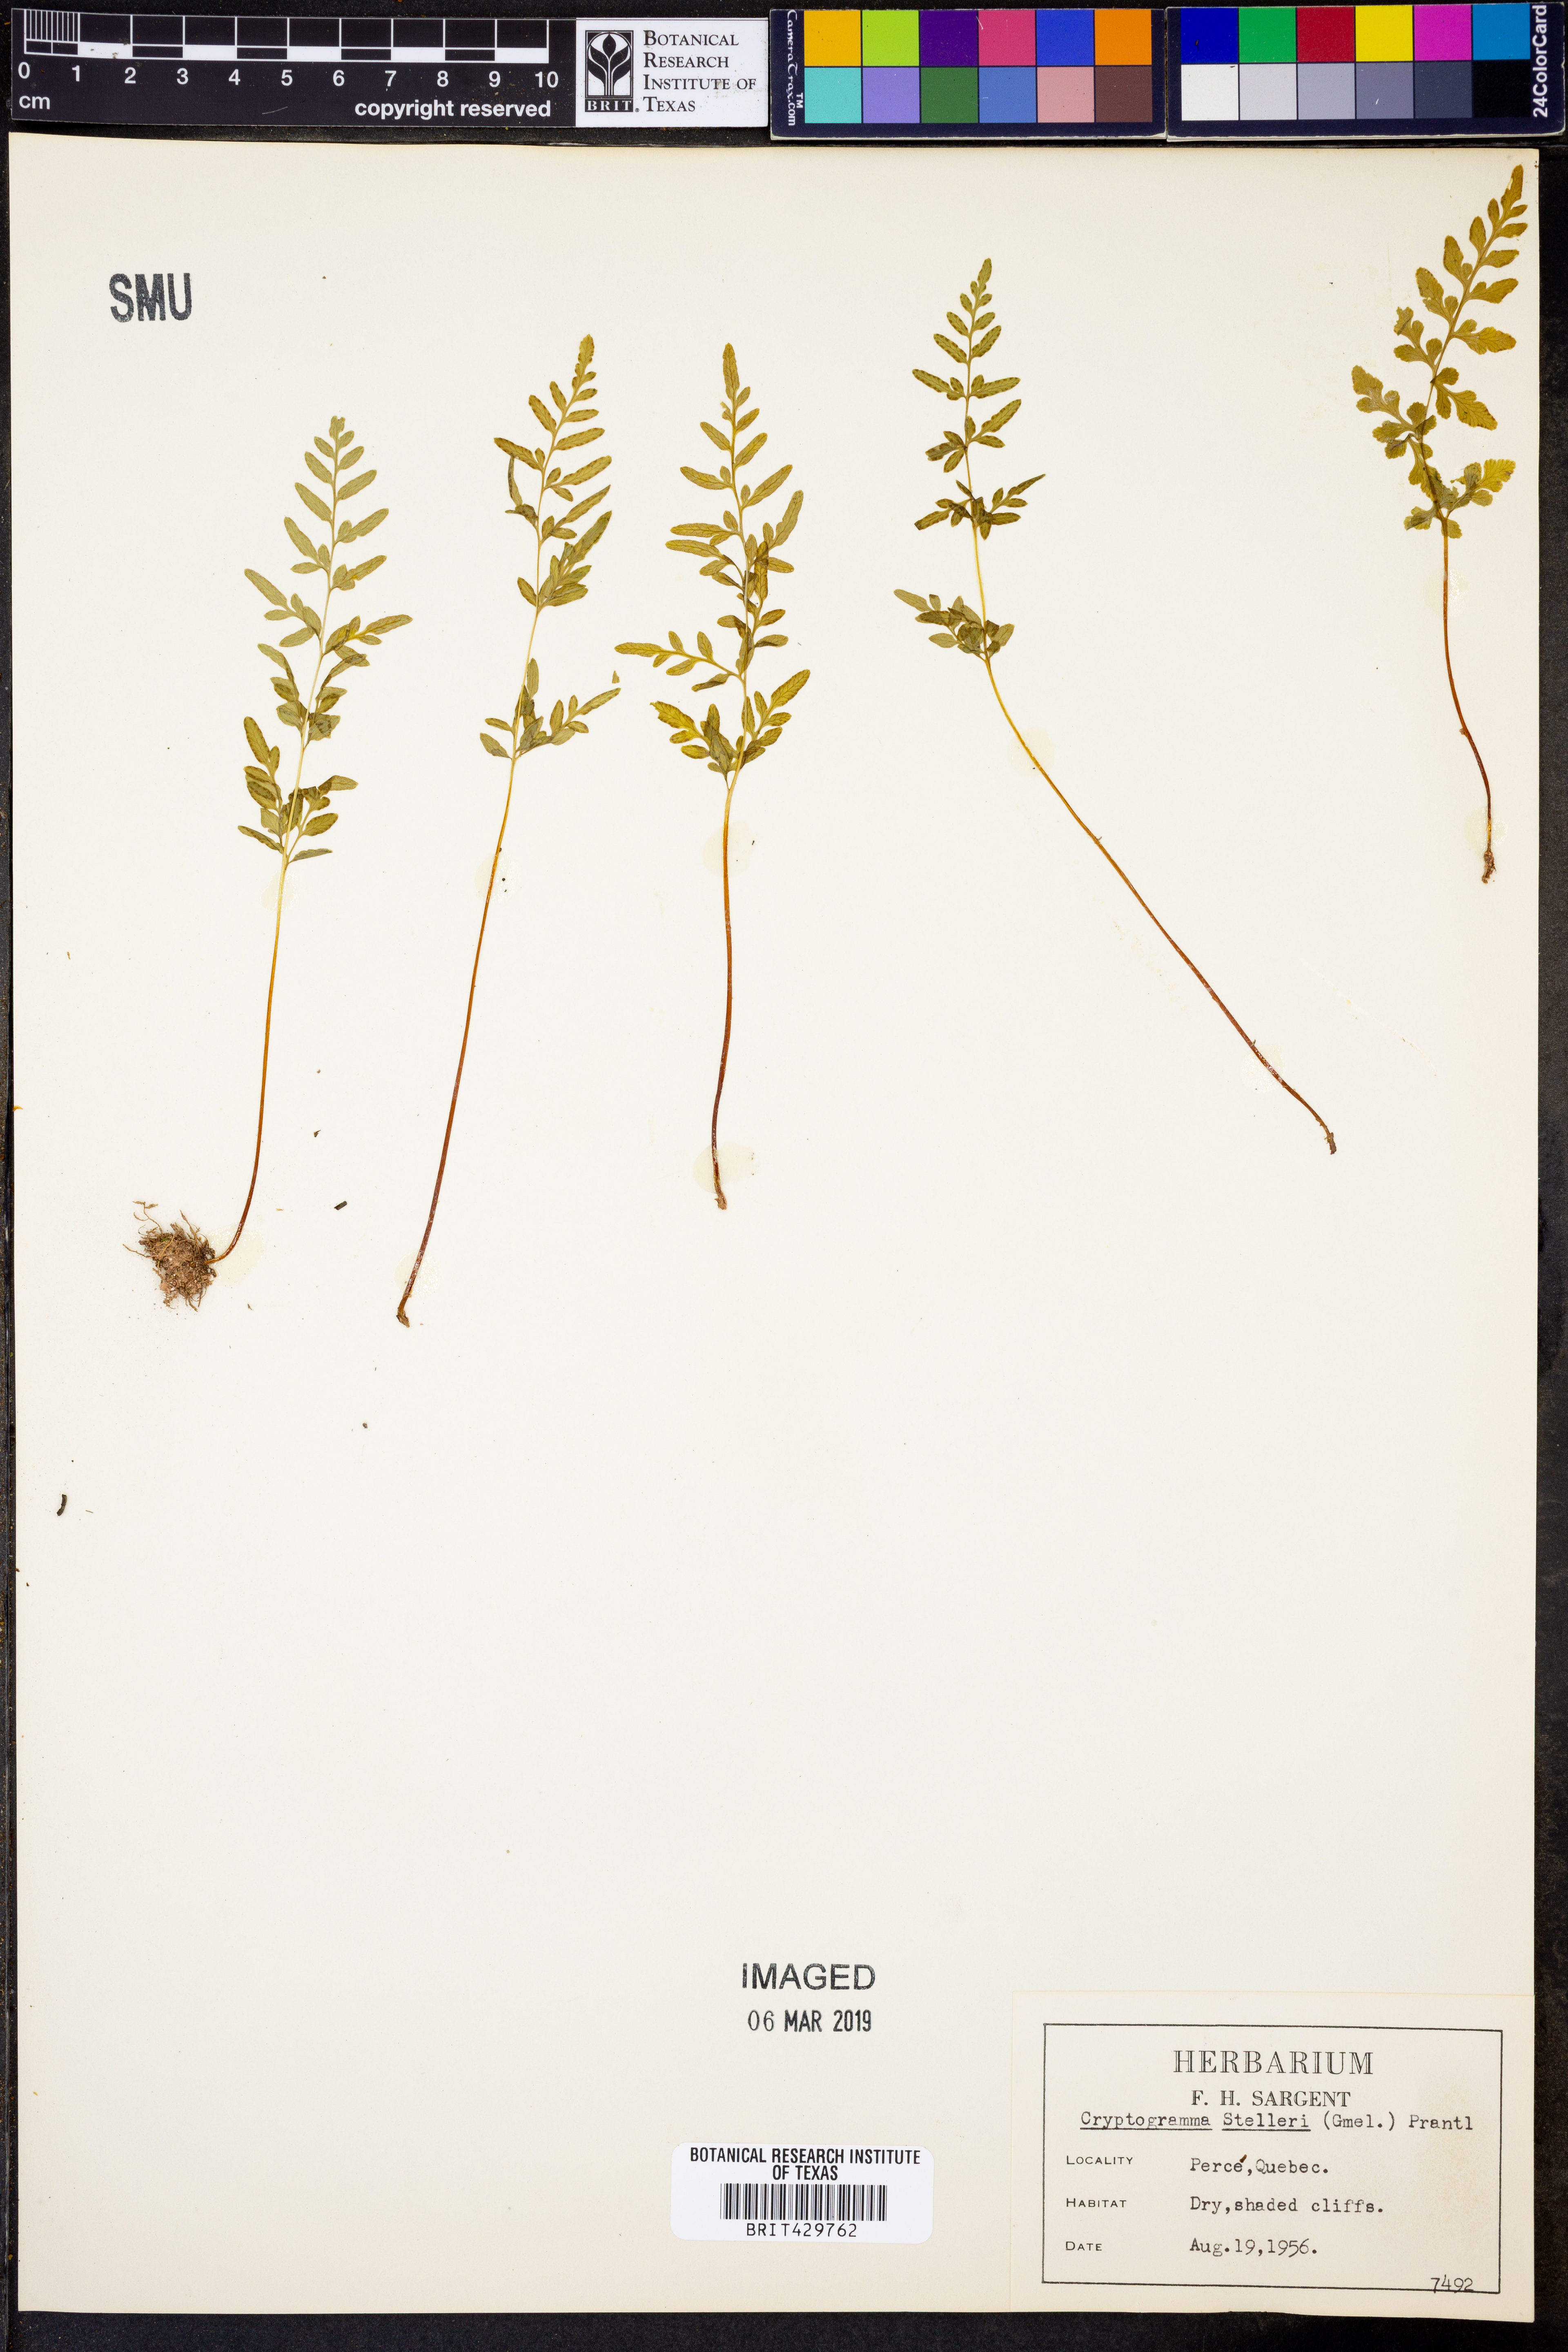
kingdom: Plantae
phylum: Tracheophyta
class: Polypodiopsida
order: Polypodiales
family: Pteridaceae
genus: Cryptogramma
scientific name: Cryptogramma stelleri
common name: Cliff-brake
